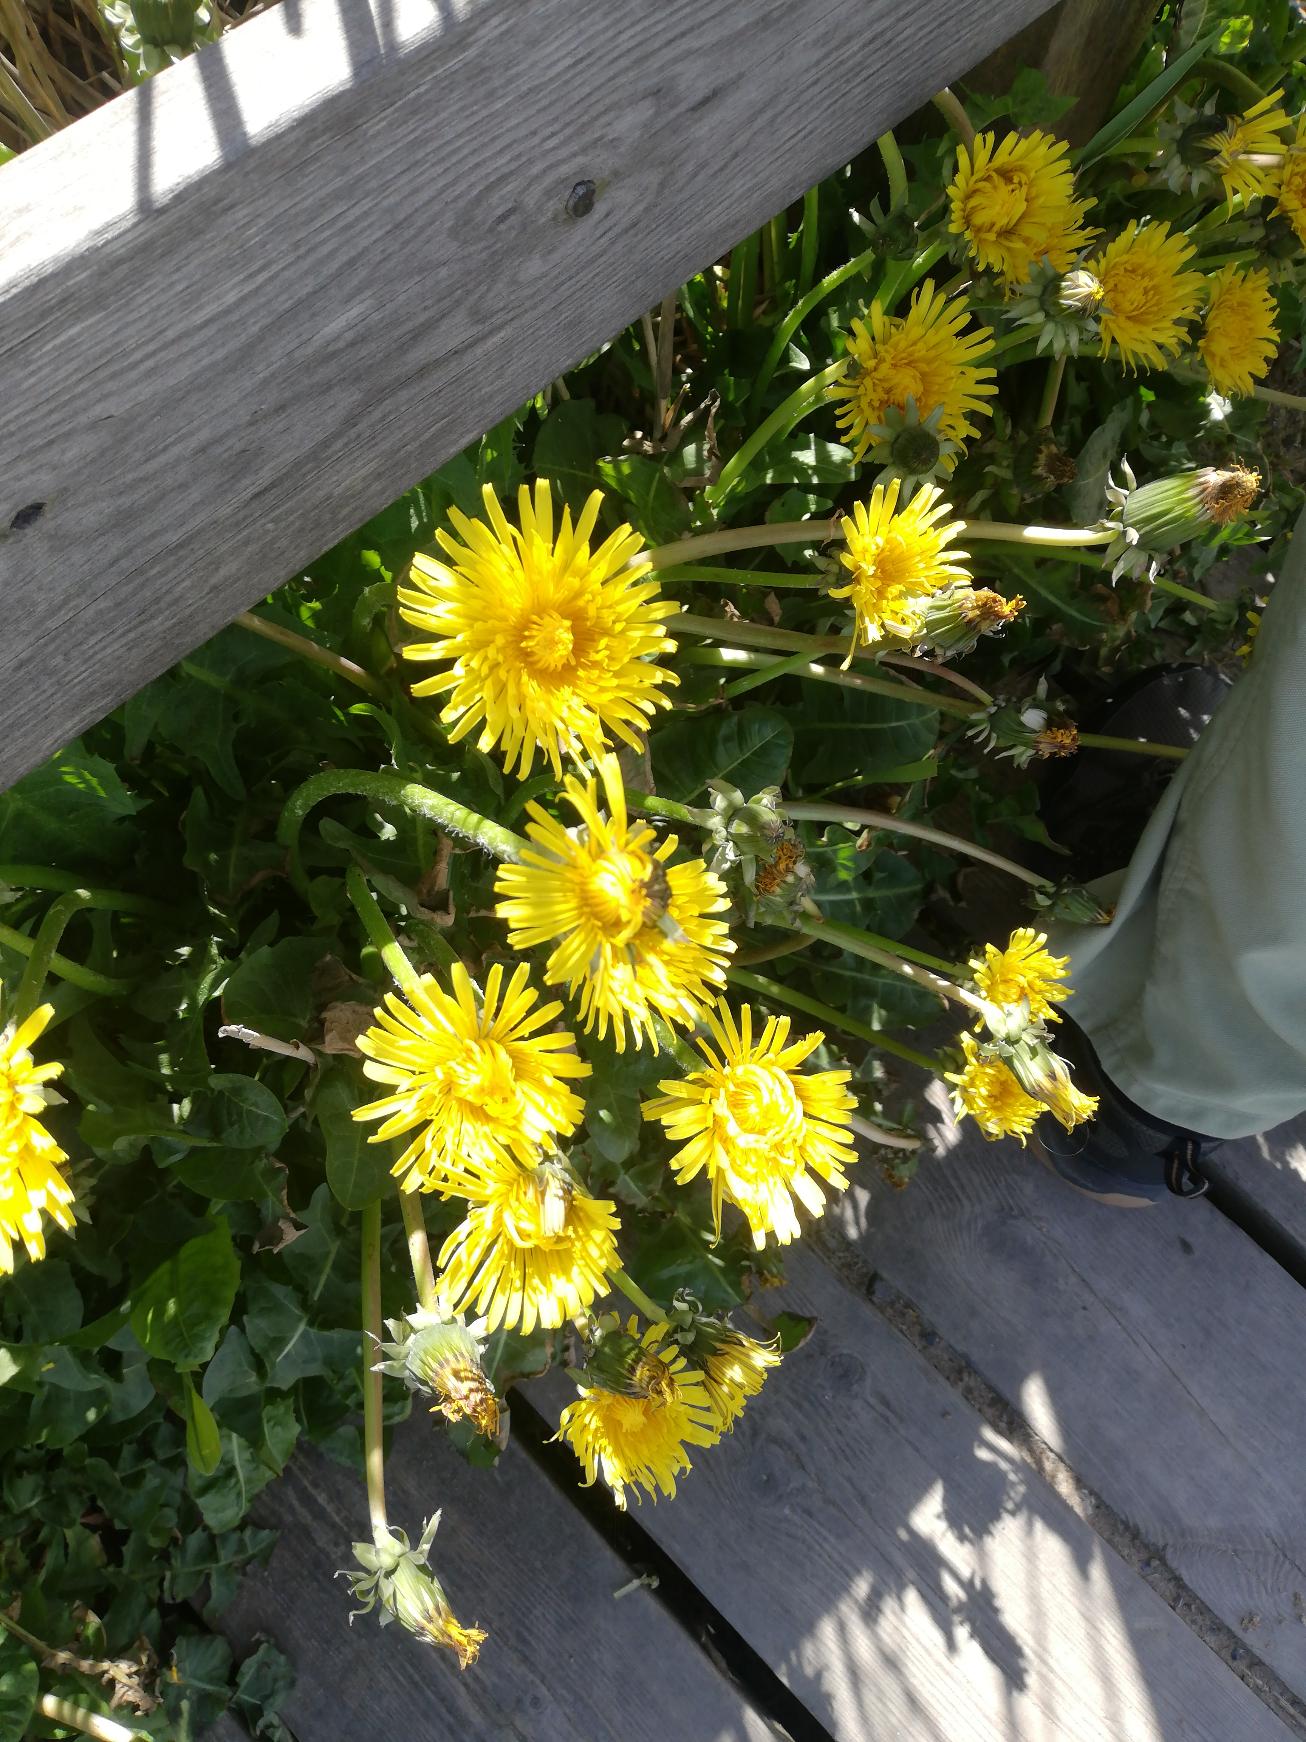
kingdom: Plantae
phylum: Tracheophyta
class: Magnoliopsida
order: Asterales
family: Asteraceae
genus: Taraxacum
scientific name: Taraxacum
